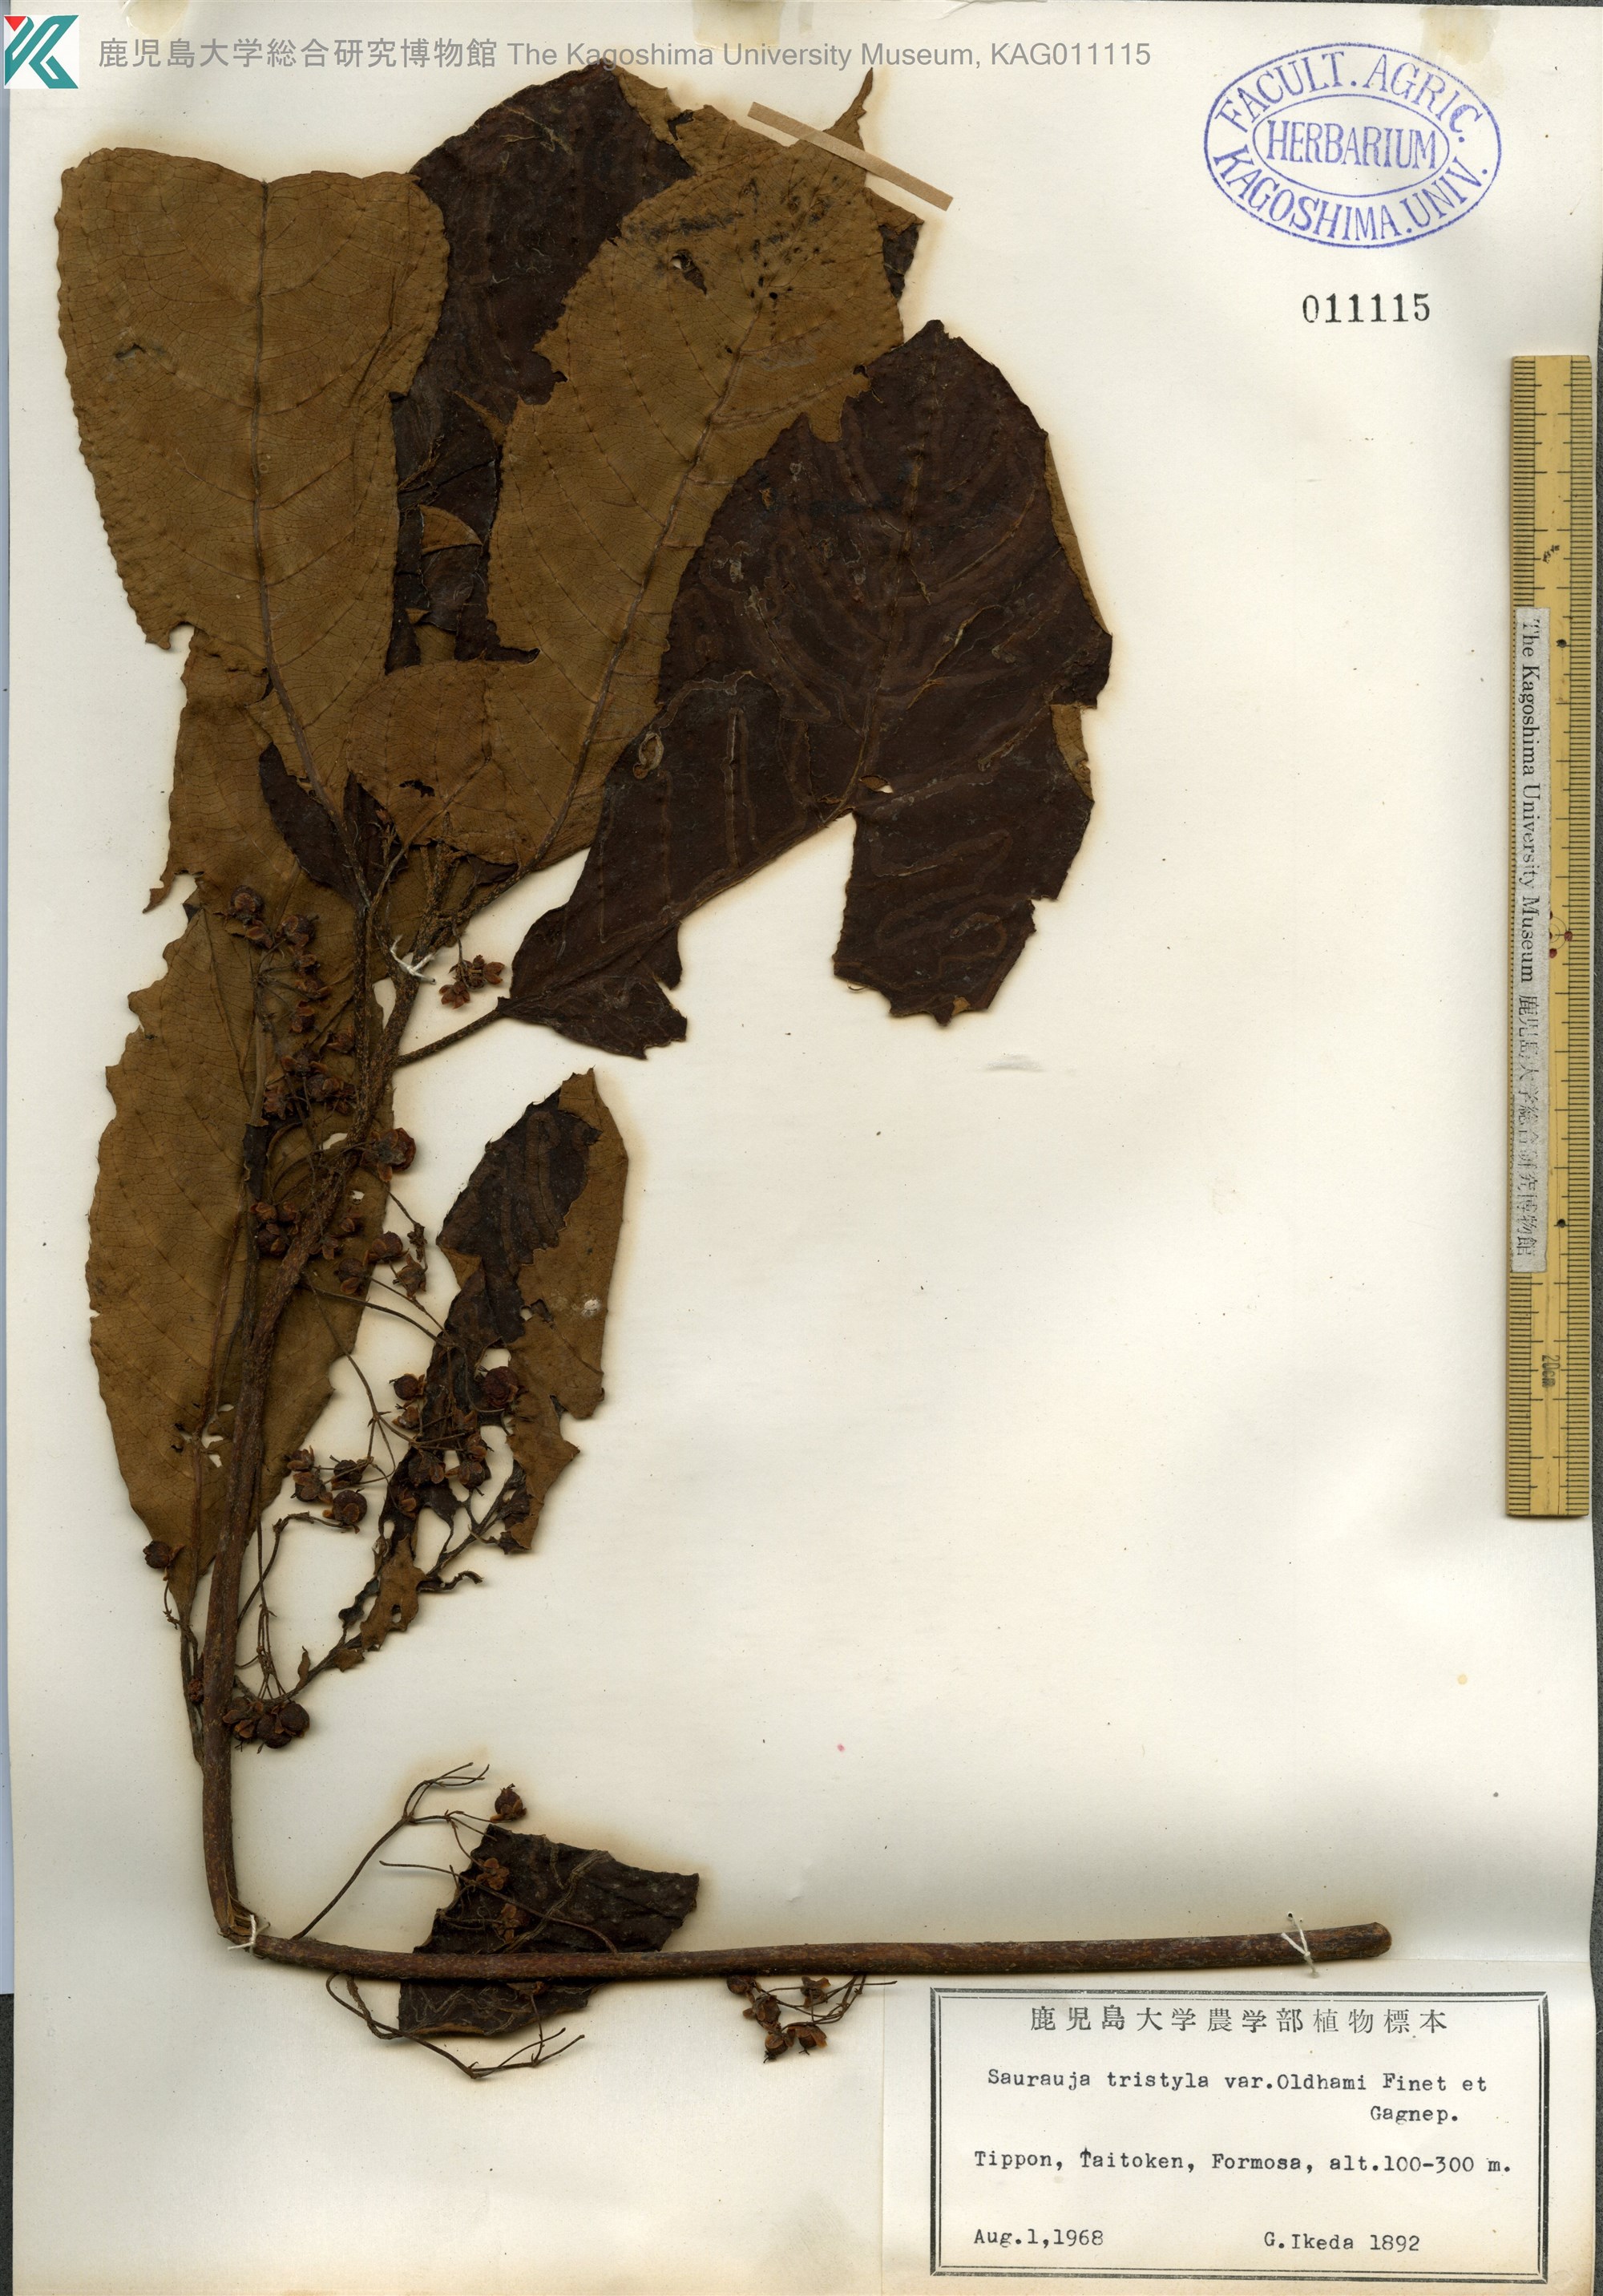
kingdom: Plantae
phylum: Tracheophyta
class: Magnoliopsida
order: Ericales
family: Actinidiaceae
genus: Saurauia
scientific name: Saurauia tristyla
